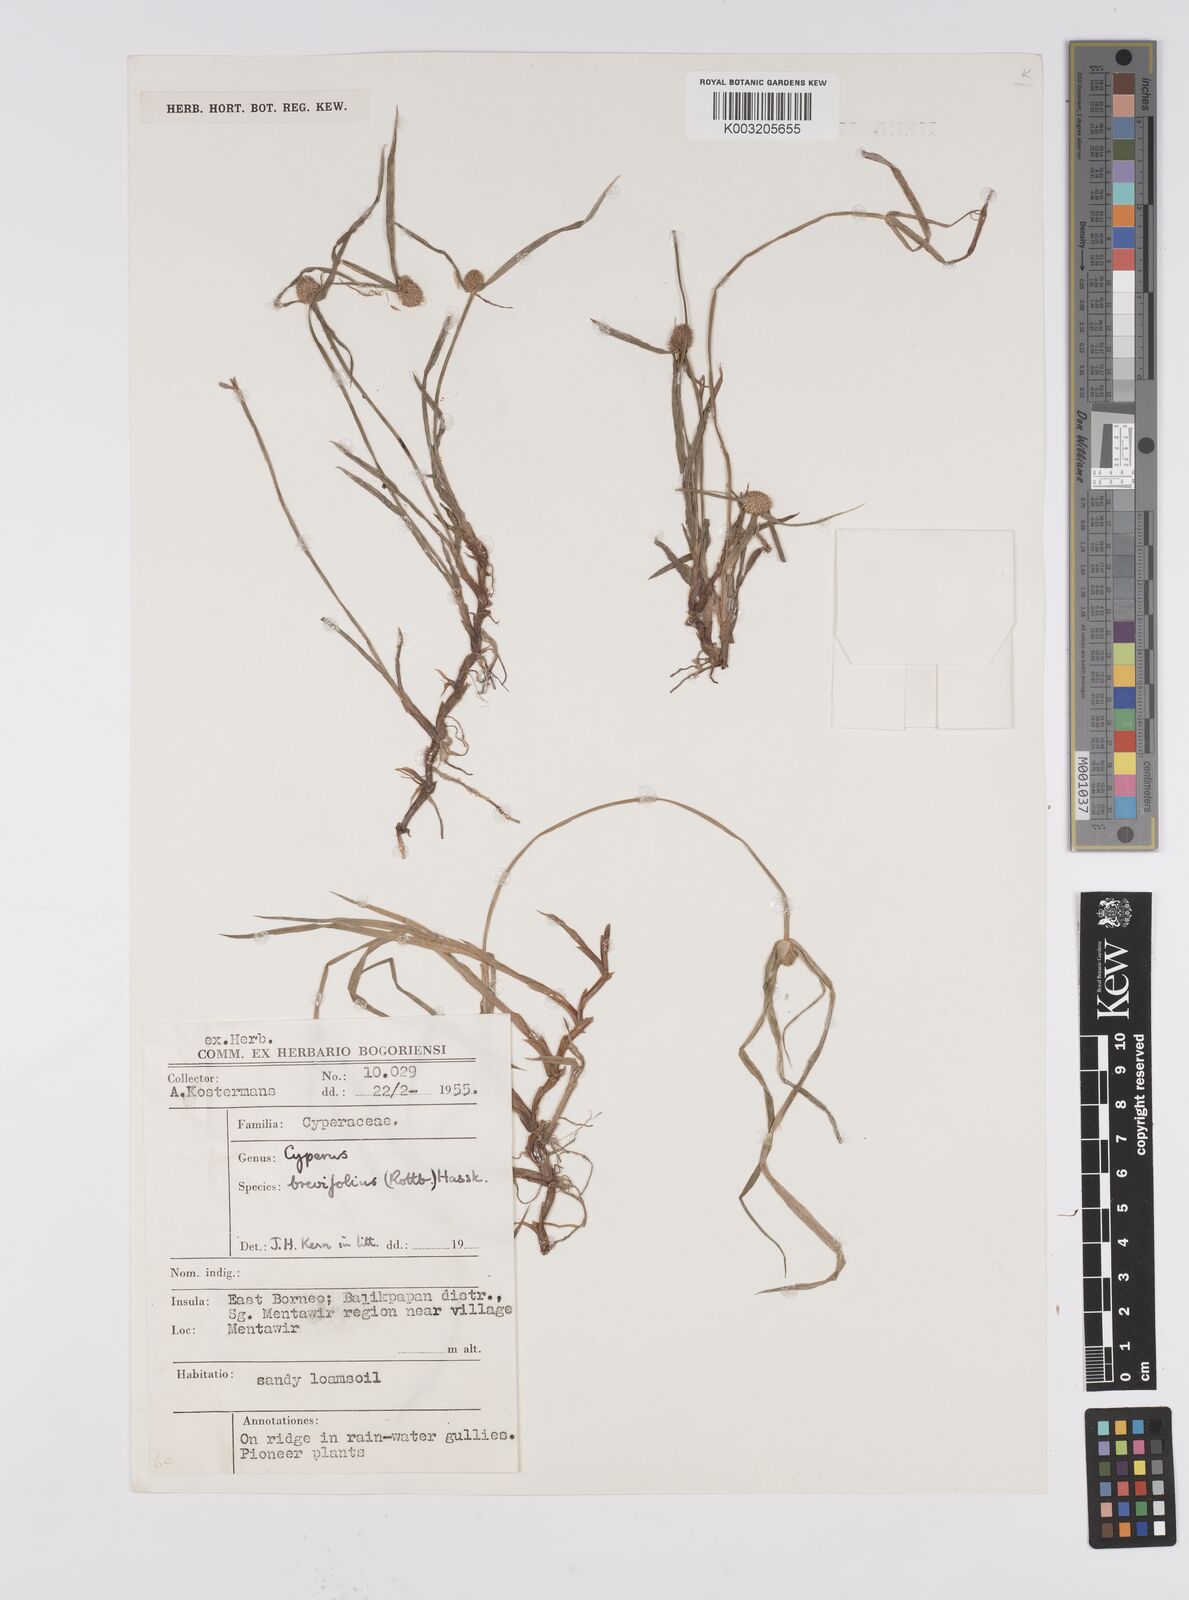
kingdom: Plantae
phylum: Tracheophyta
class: Liliopsida
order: Poales
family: Cyperaceae
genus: Cyperus
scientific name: Cyperus brevifolius
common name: Globe kyllinga
